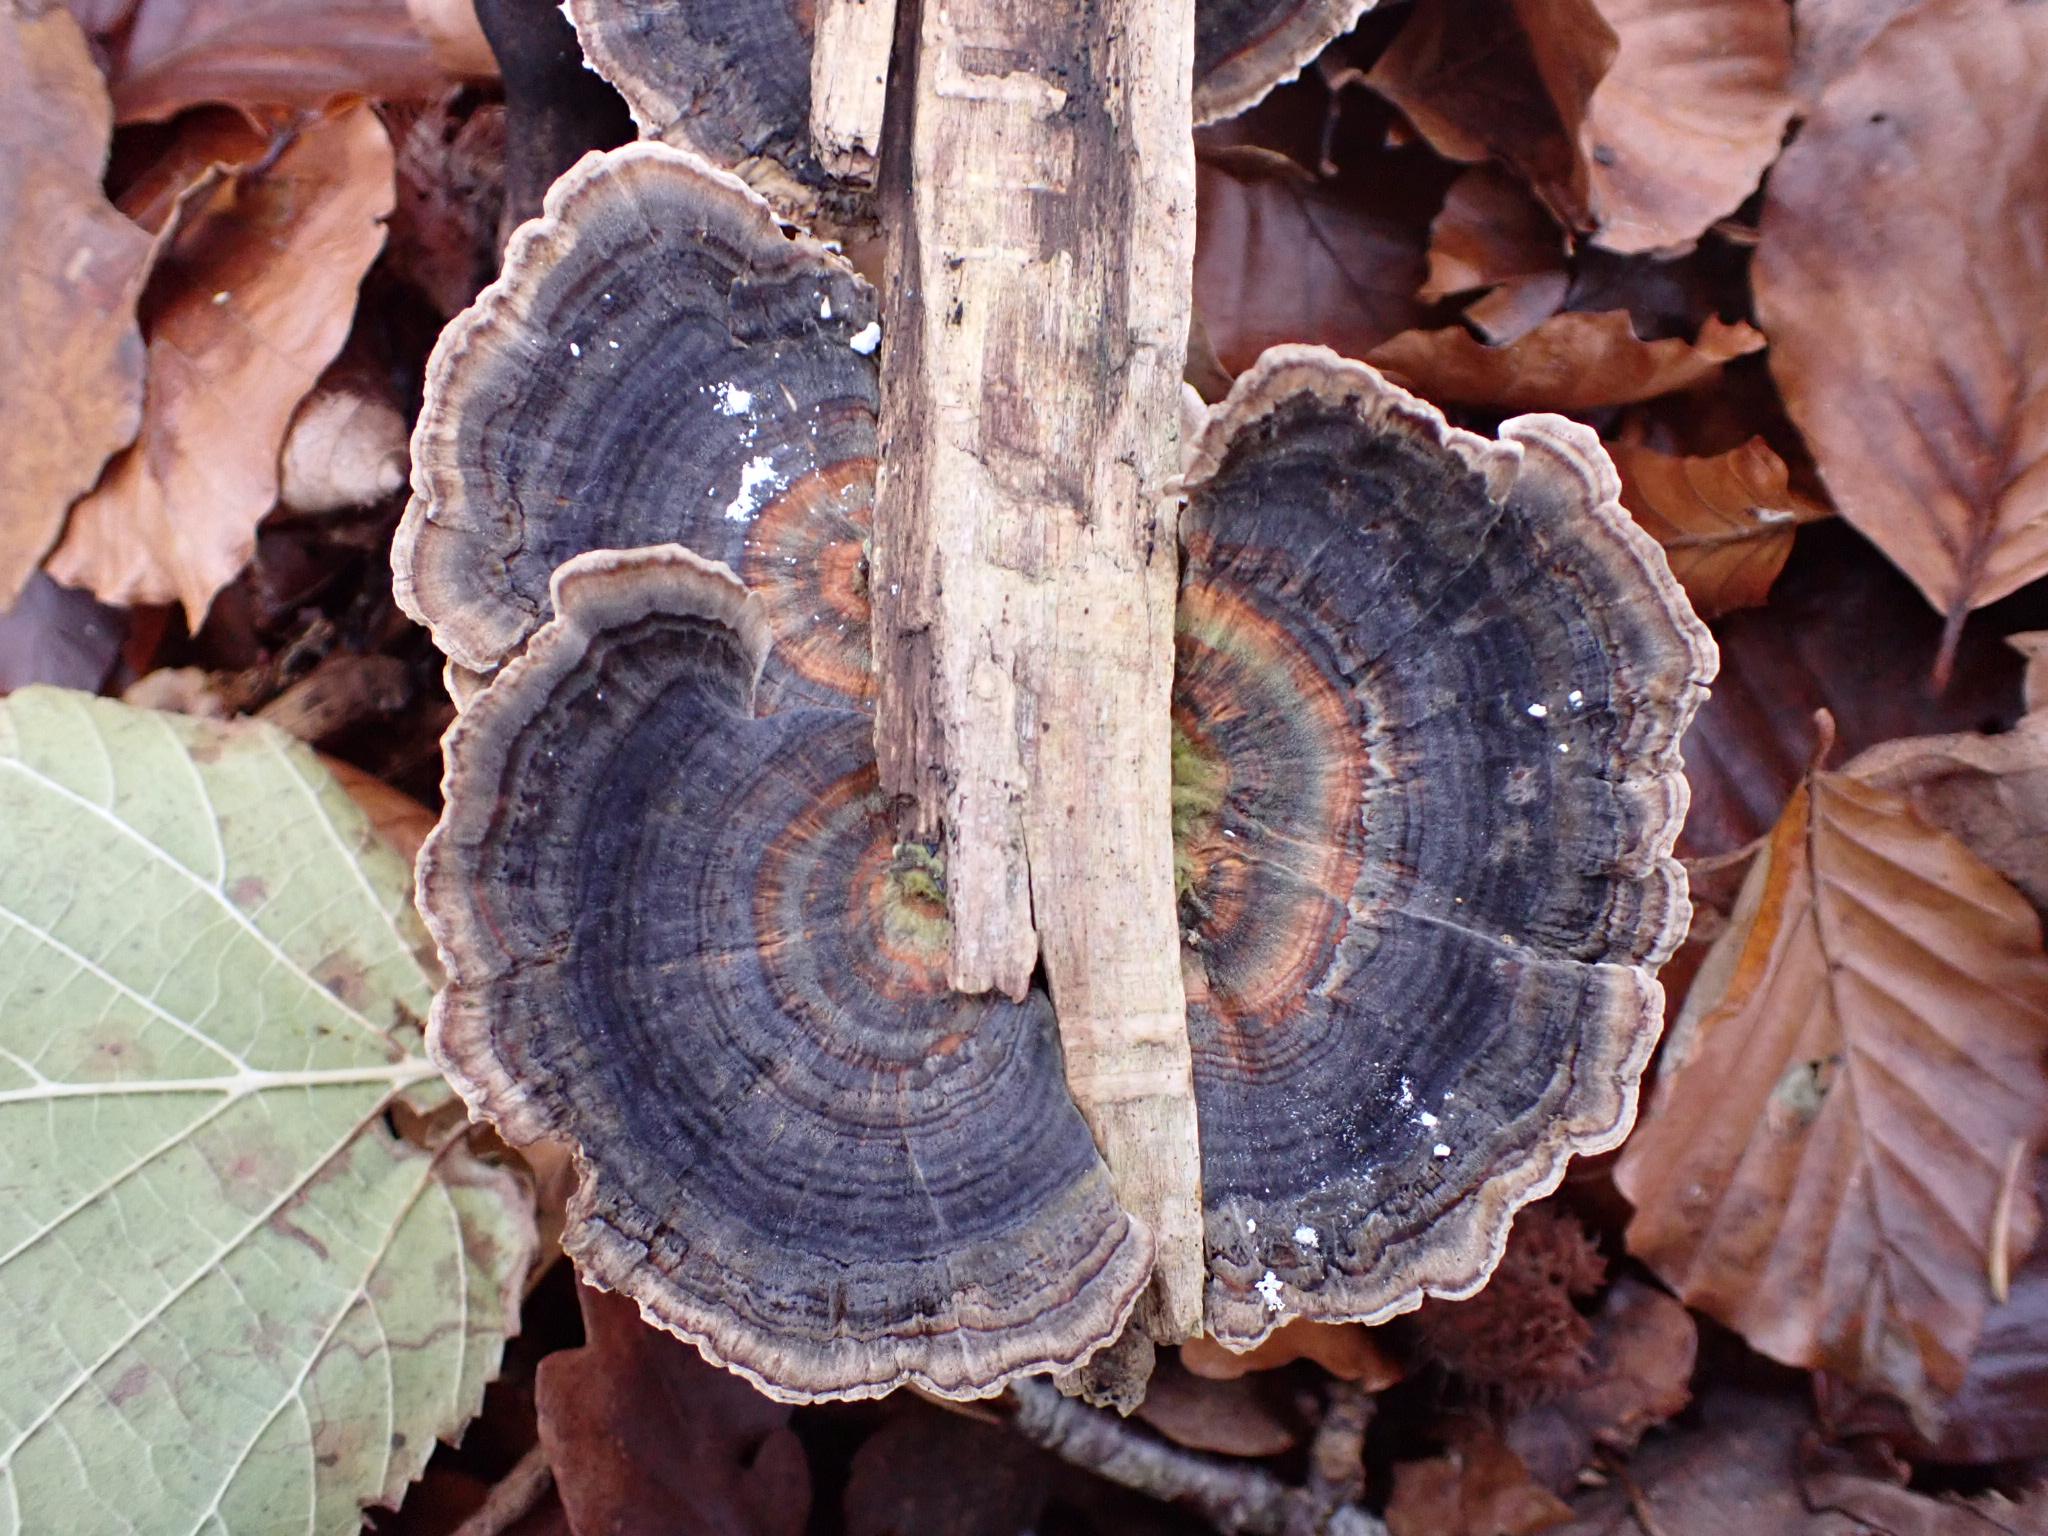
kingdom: Fungi
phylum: Basidiomycota
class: Agaricomycetes
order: Polyporales
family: Polyporaceae
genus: Trametes
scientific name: Trametes versicolor
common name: broget læderporesvamp
